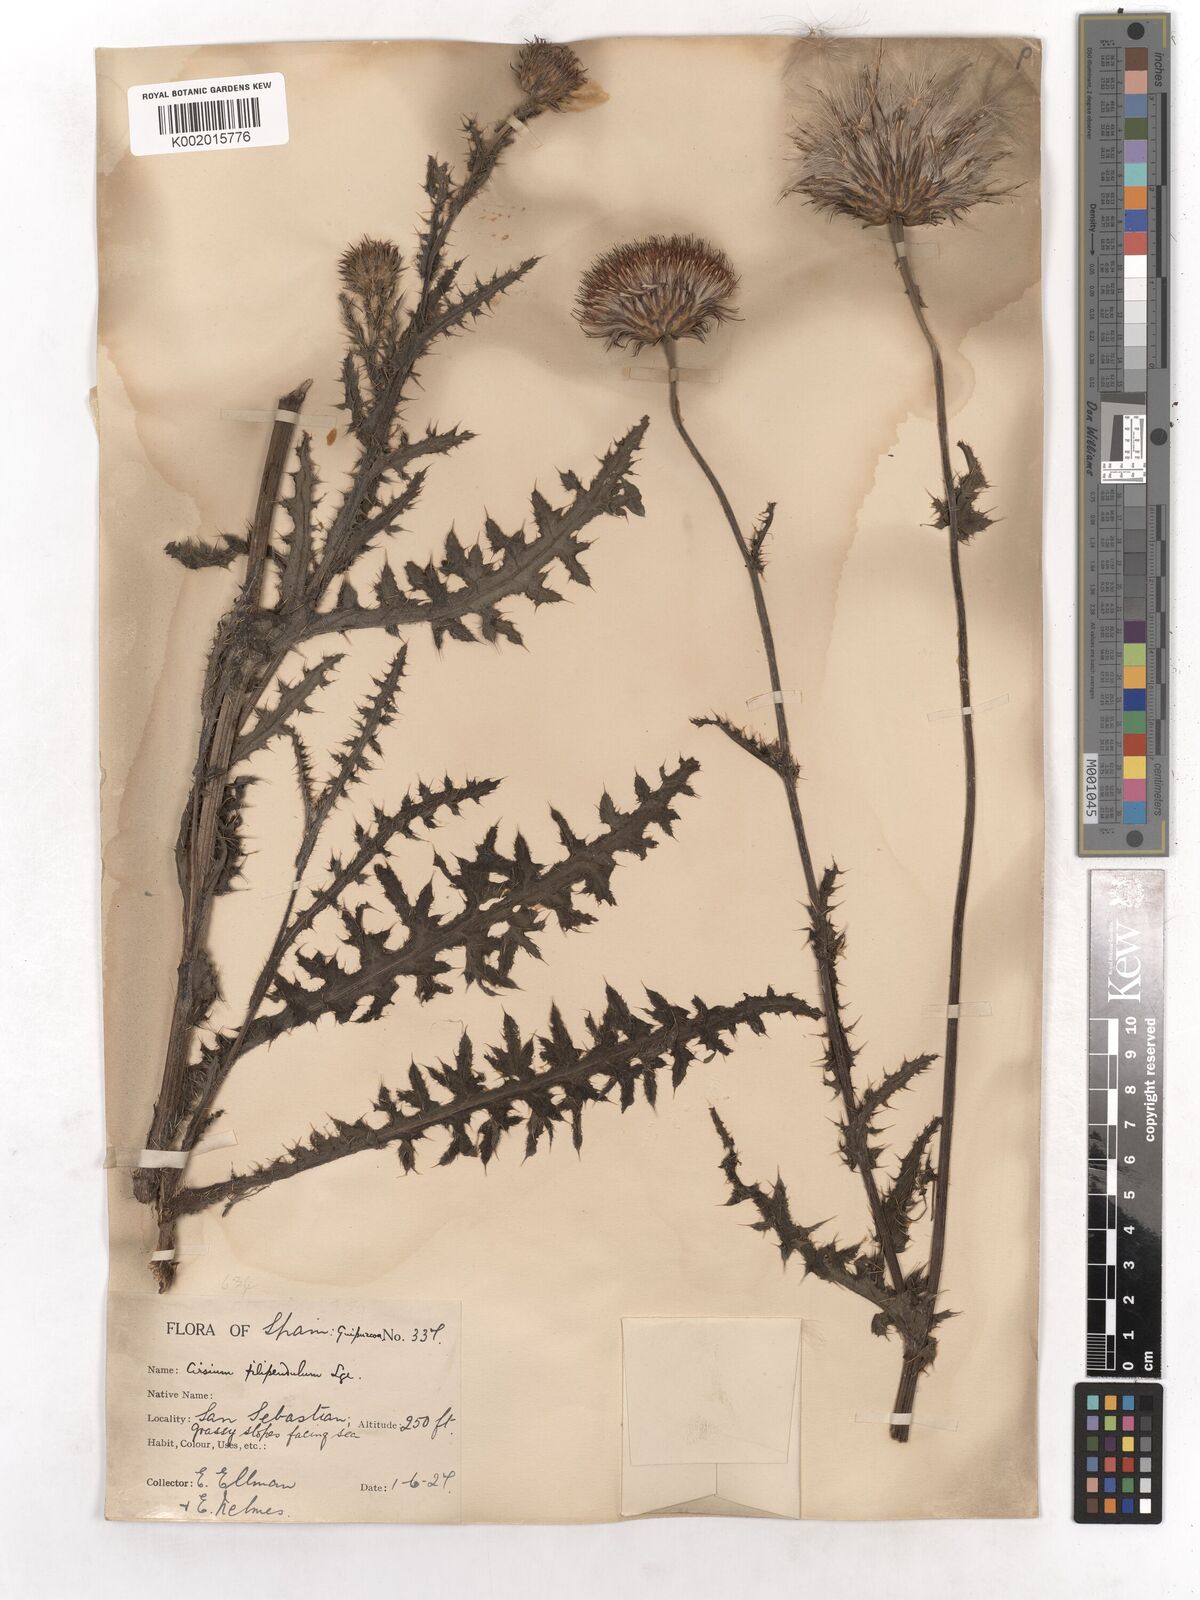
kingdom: Plantae
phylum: Tracheophyta
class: Magnoliopsida
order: Asterales
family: Asteraceae
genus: Cirsium
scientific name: Cirsium filipendulum
